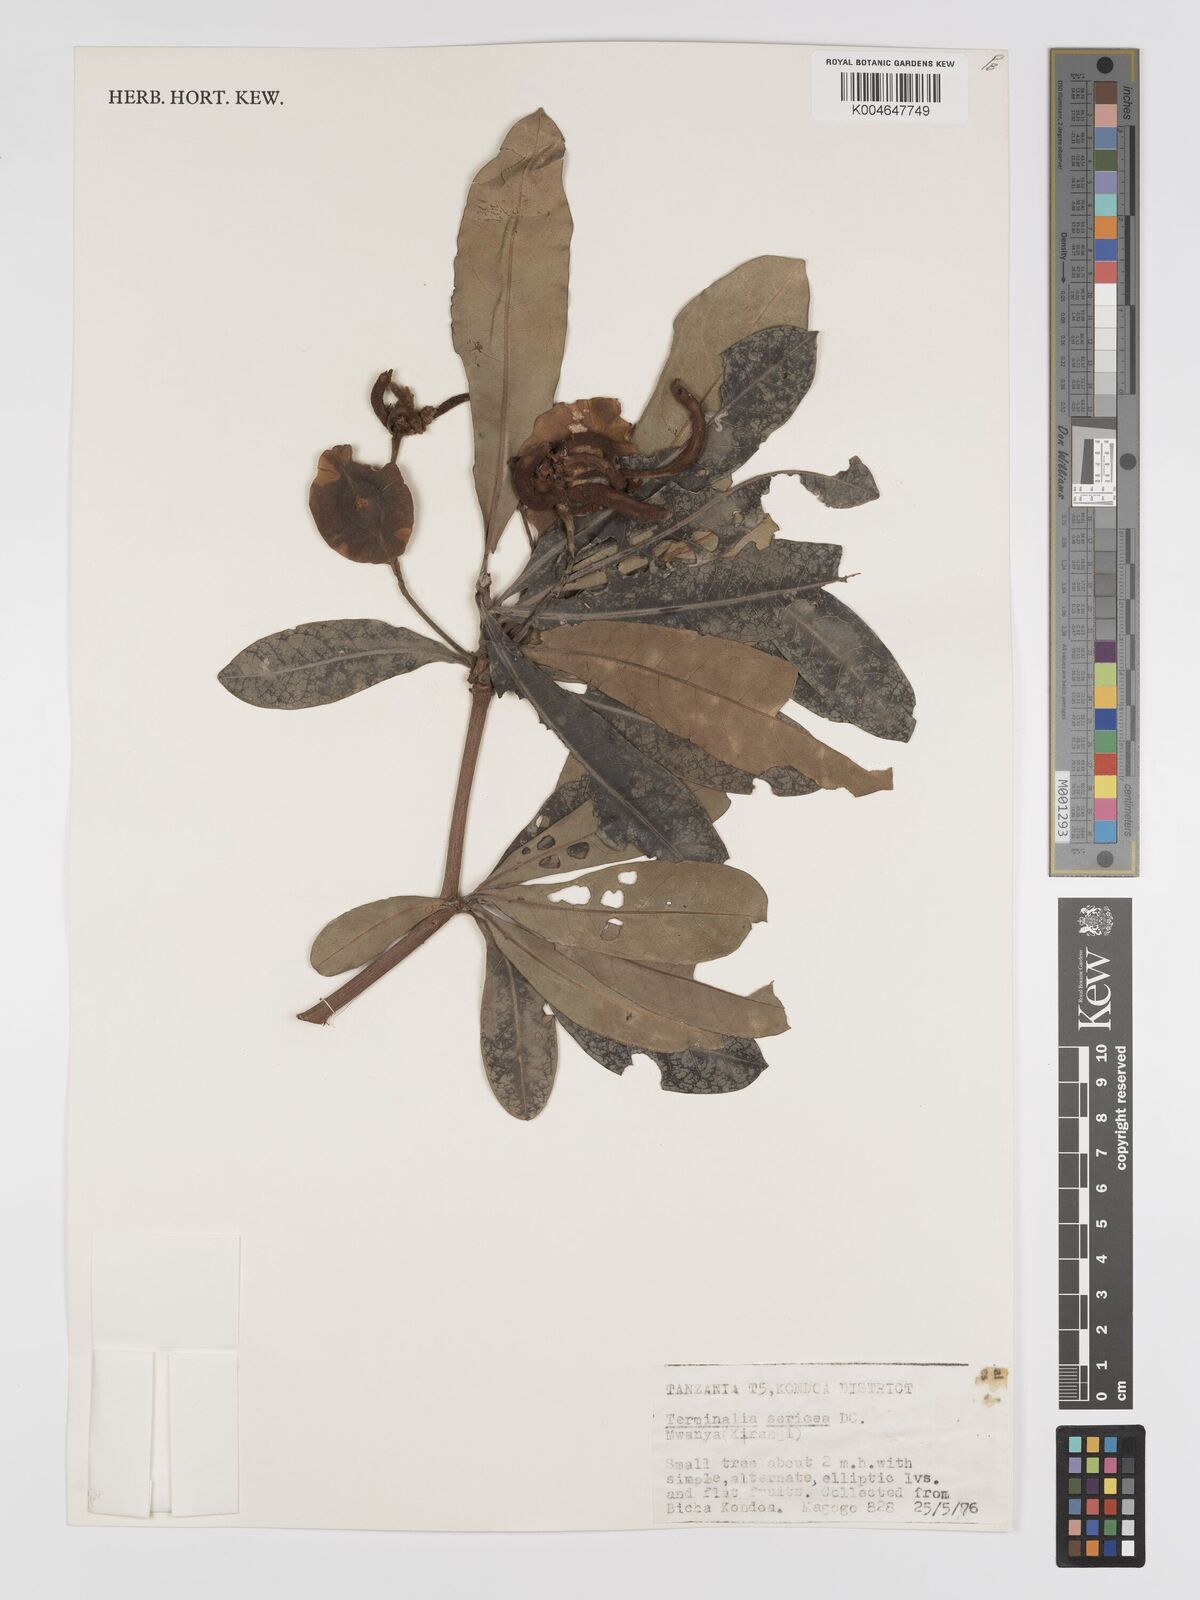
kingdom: Plantae
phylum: Tracheophyta
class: Magnoliopsida
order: Myrtales
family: Combretaceae
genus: Terminalia
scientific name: Terminalia
